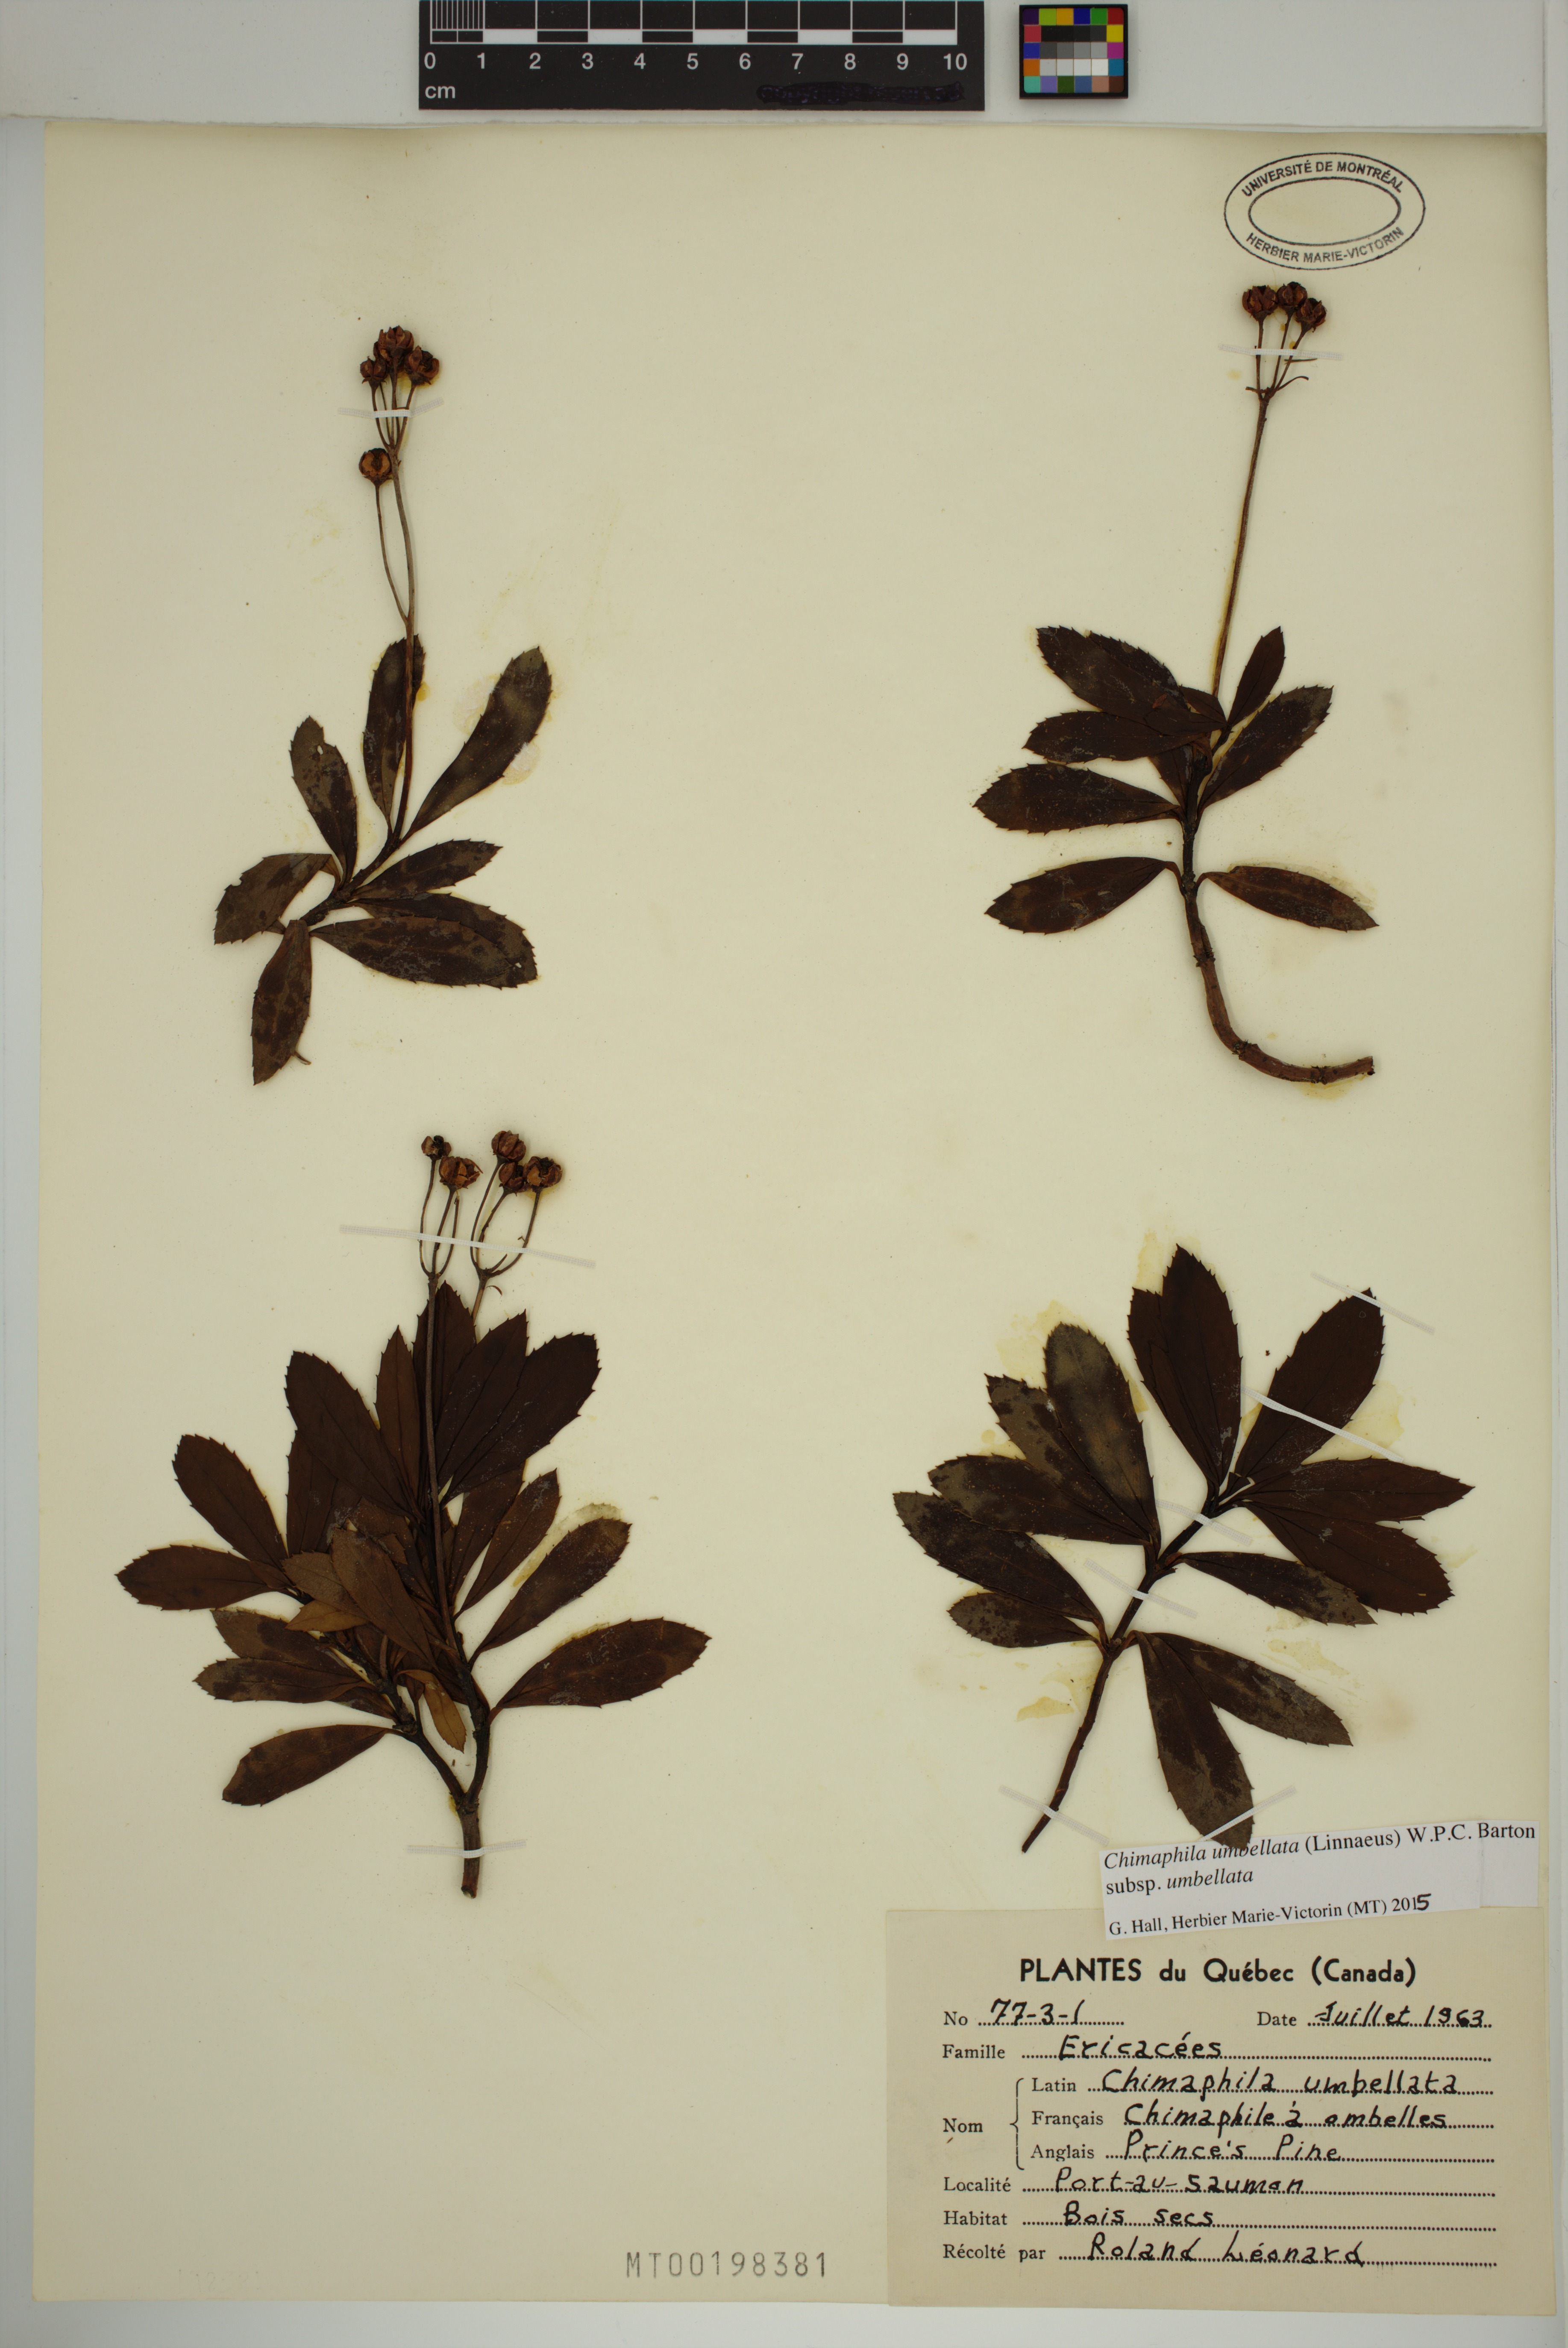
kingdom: Plantae
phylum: Tracheophyta
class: Magnoliopsida
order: Ericales
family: Ericaceae
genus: Chimaphila
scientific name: Chimaphila umbellata
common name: Pipsissewa
